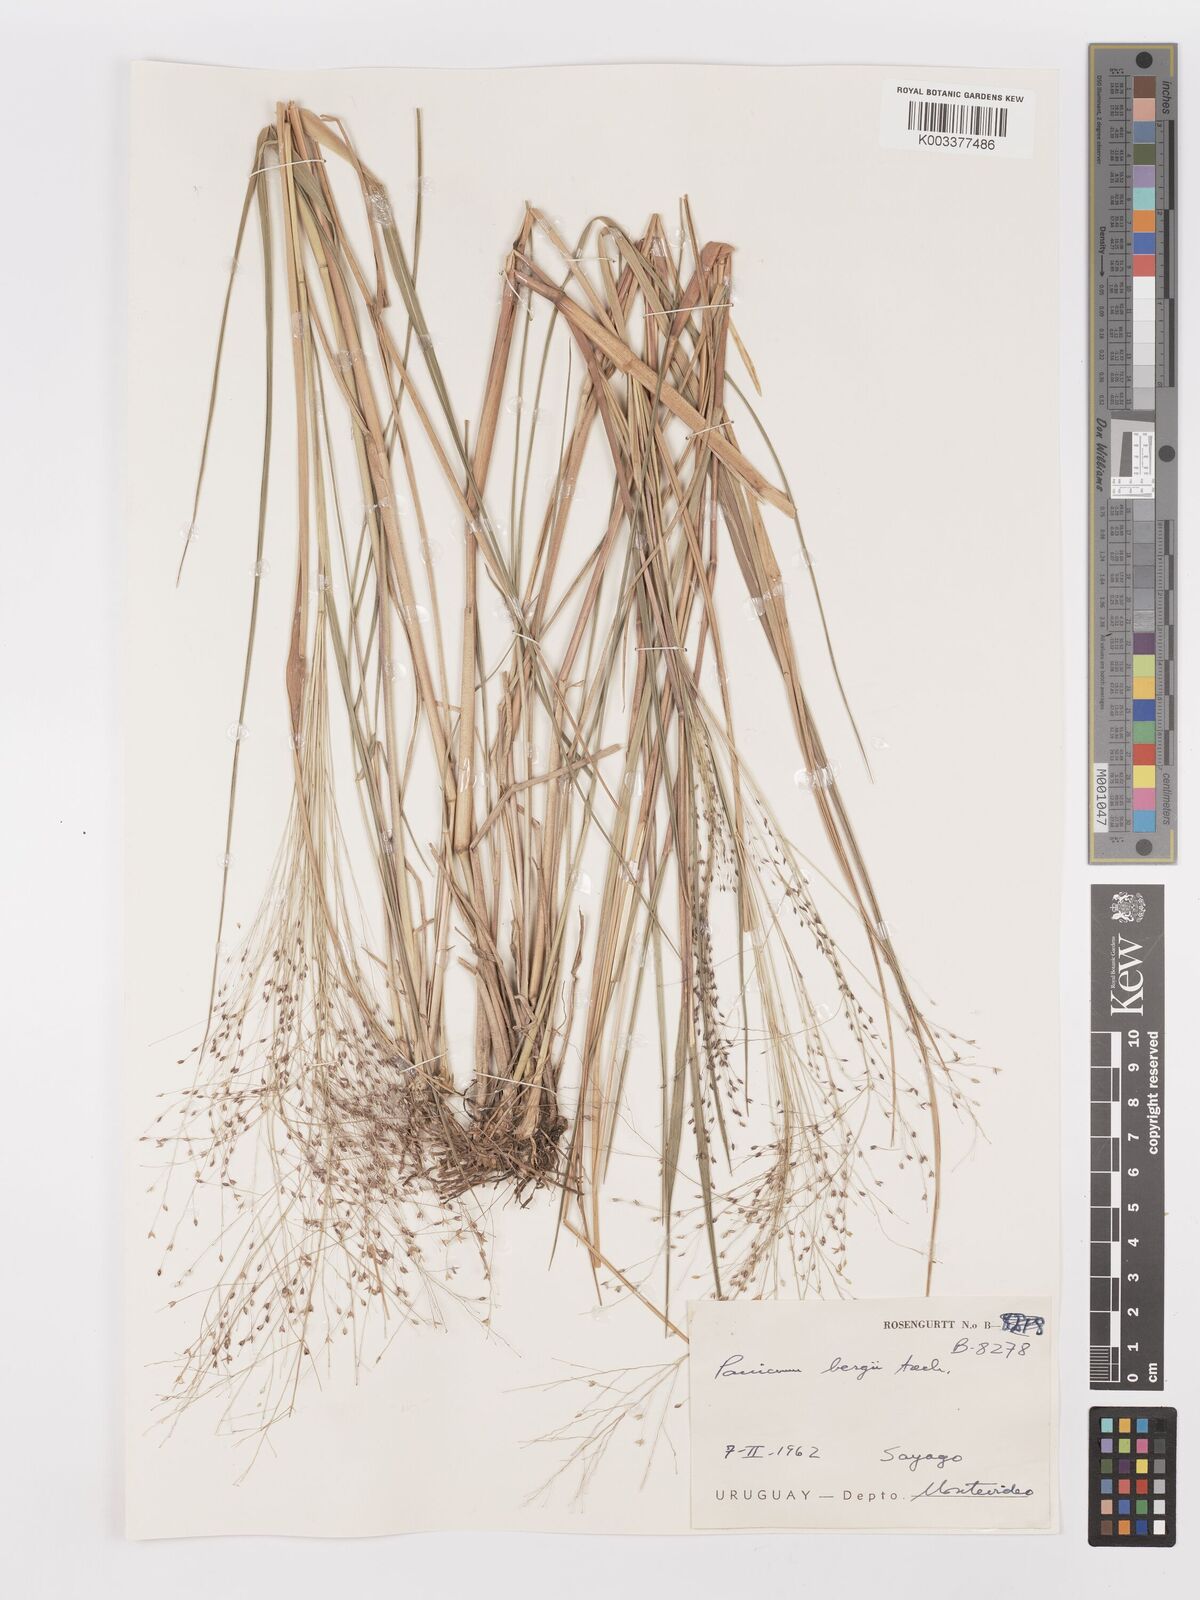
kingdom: Plantae
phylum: Tracheophyta
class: Liliopsida
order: Poales
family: Poaceae
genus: Panicum
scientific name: Panicum bergii
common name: Berg's panicgrass
